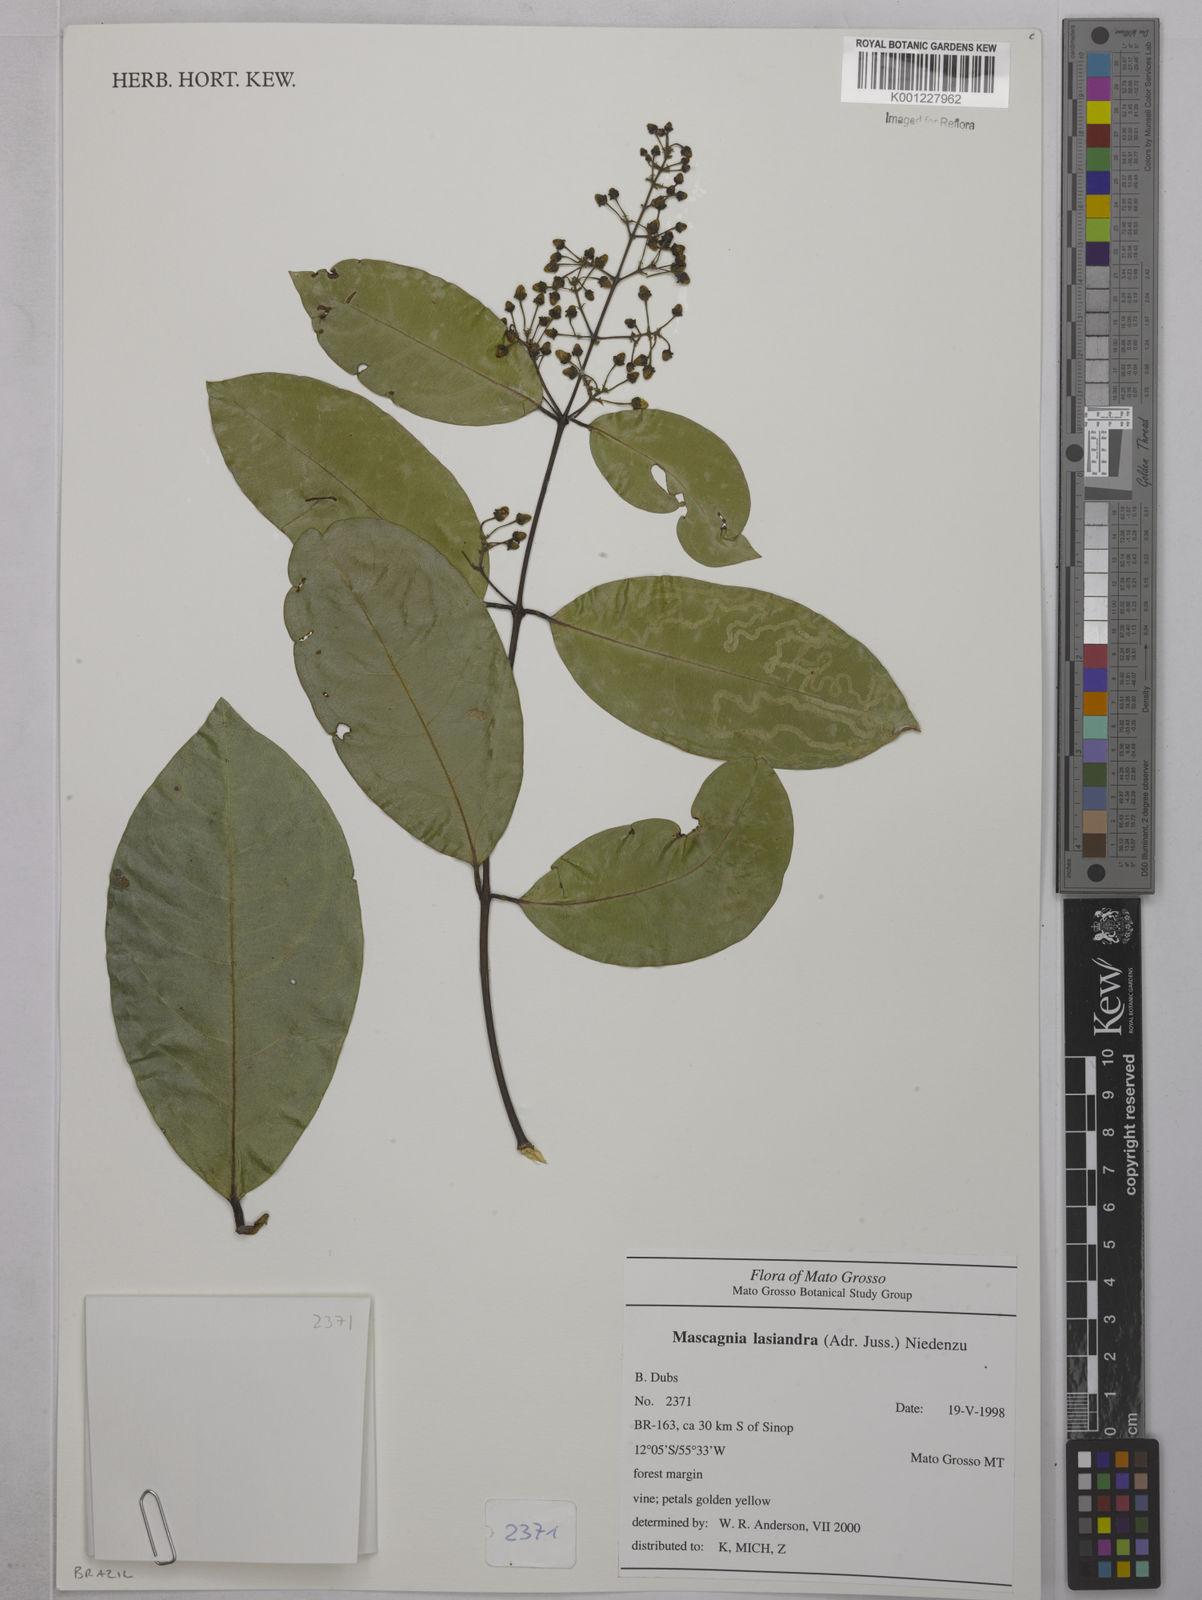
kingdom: Plantae
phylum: Tracheophyta
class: Magnoliopsida
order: Malpighiales
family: Malpighiaceae
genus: Niedenzuella
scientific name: Niedenzuella lasiandra
